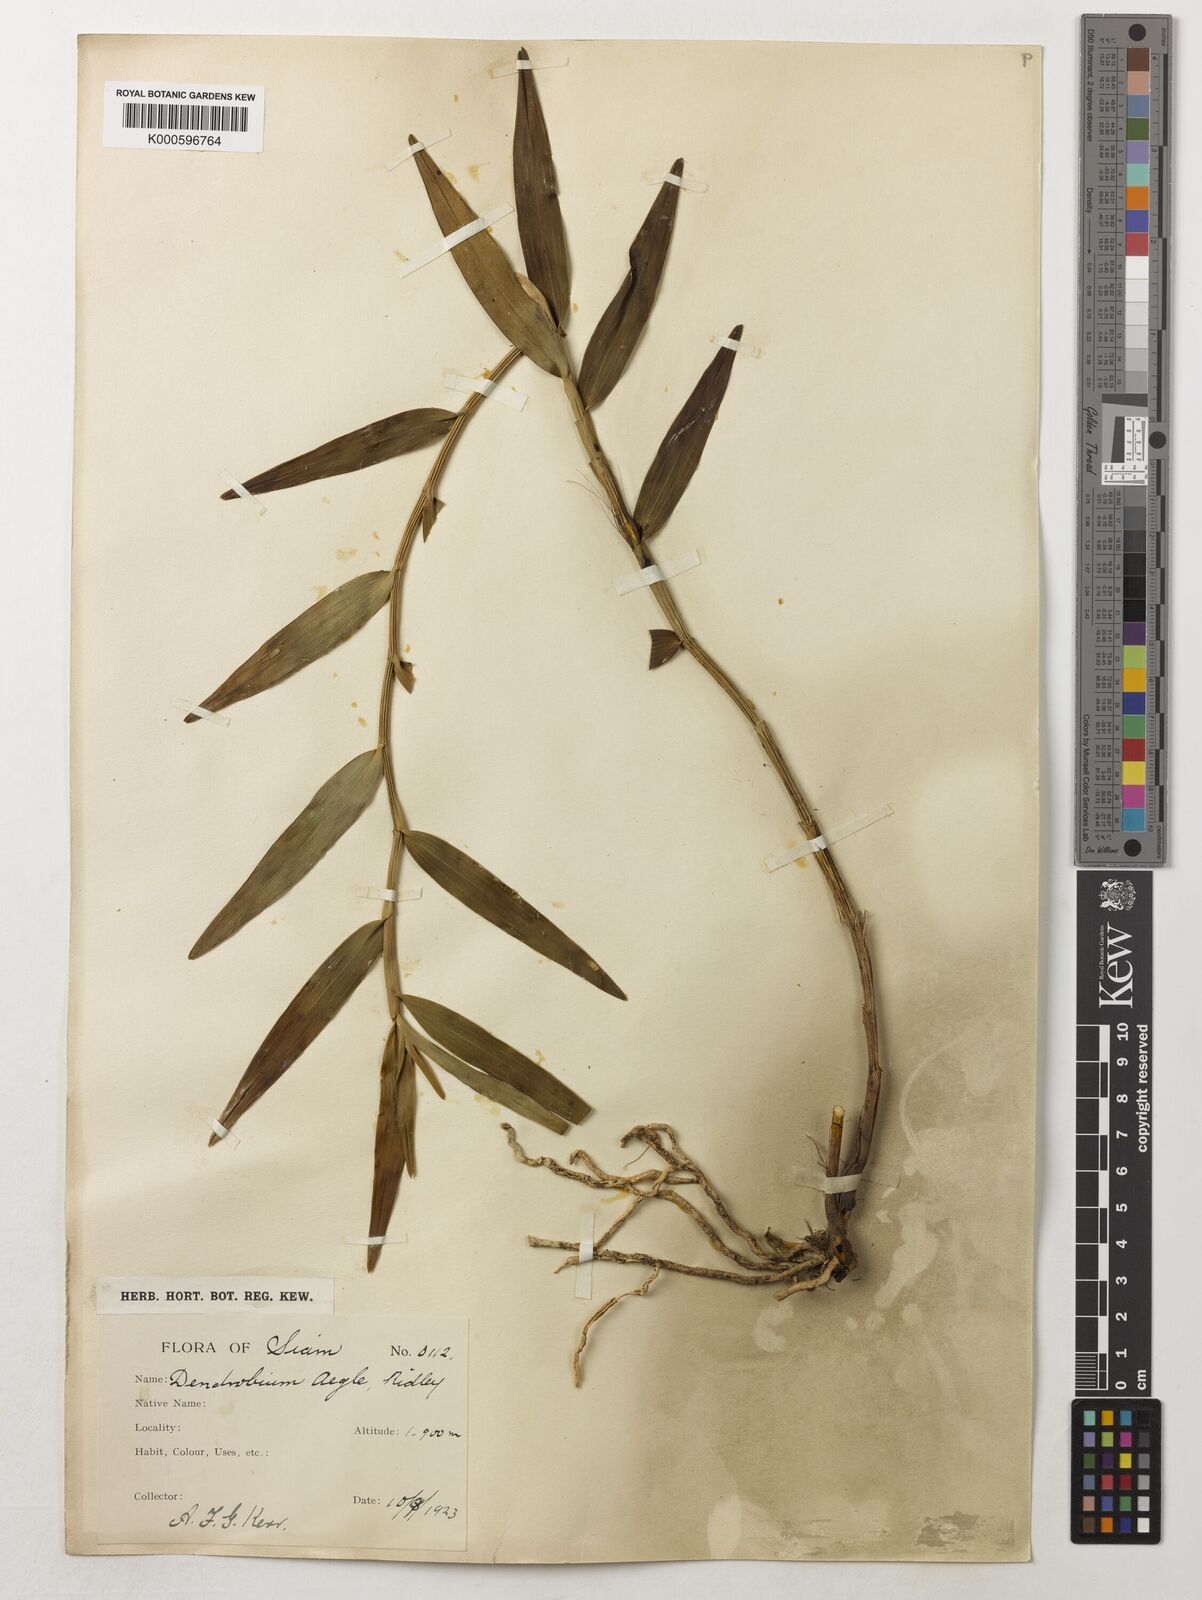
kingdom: Plantae
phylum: Tracheophyta
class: Liliopsida
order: Asparagales
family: Orchidaceae
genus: Dendrobium
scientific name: Dendrobium erosum
